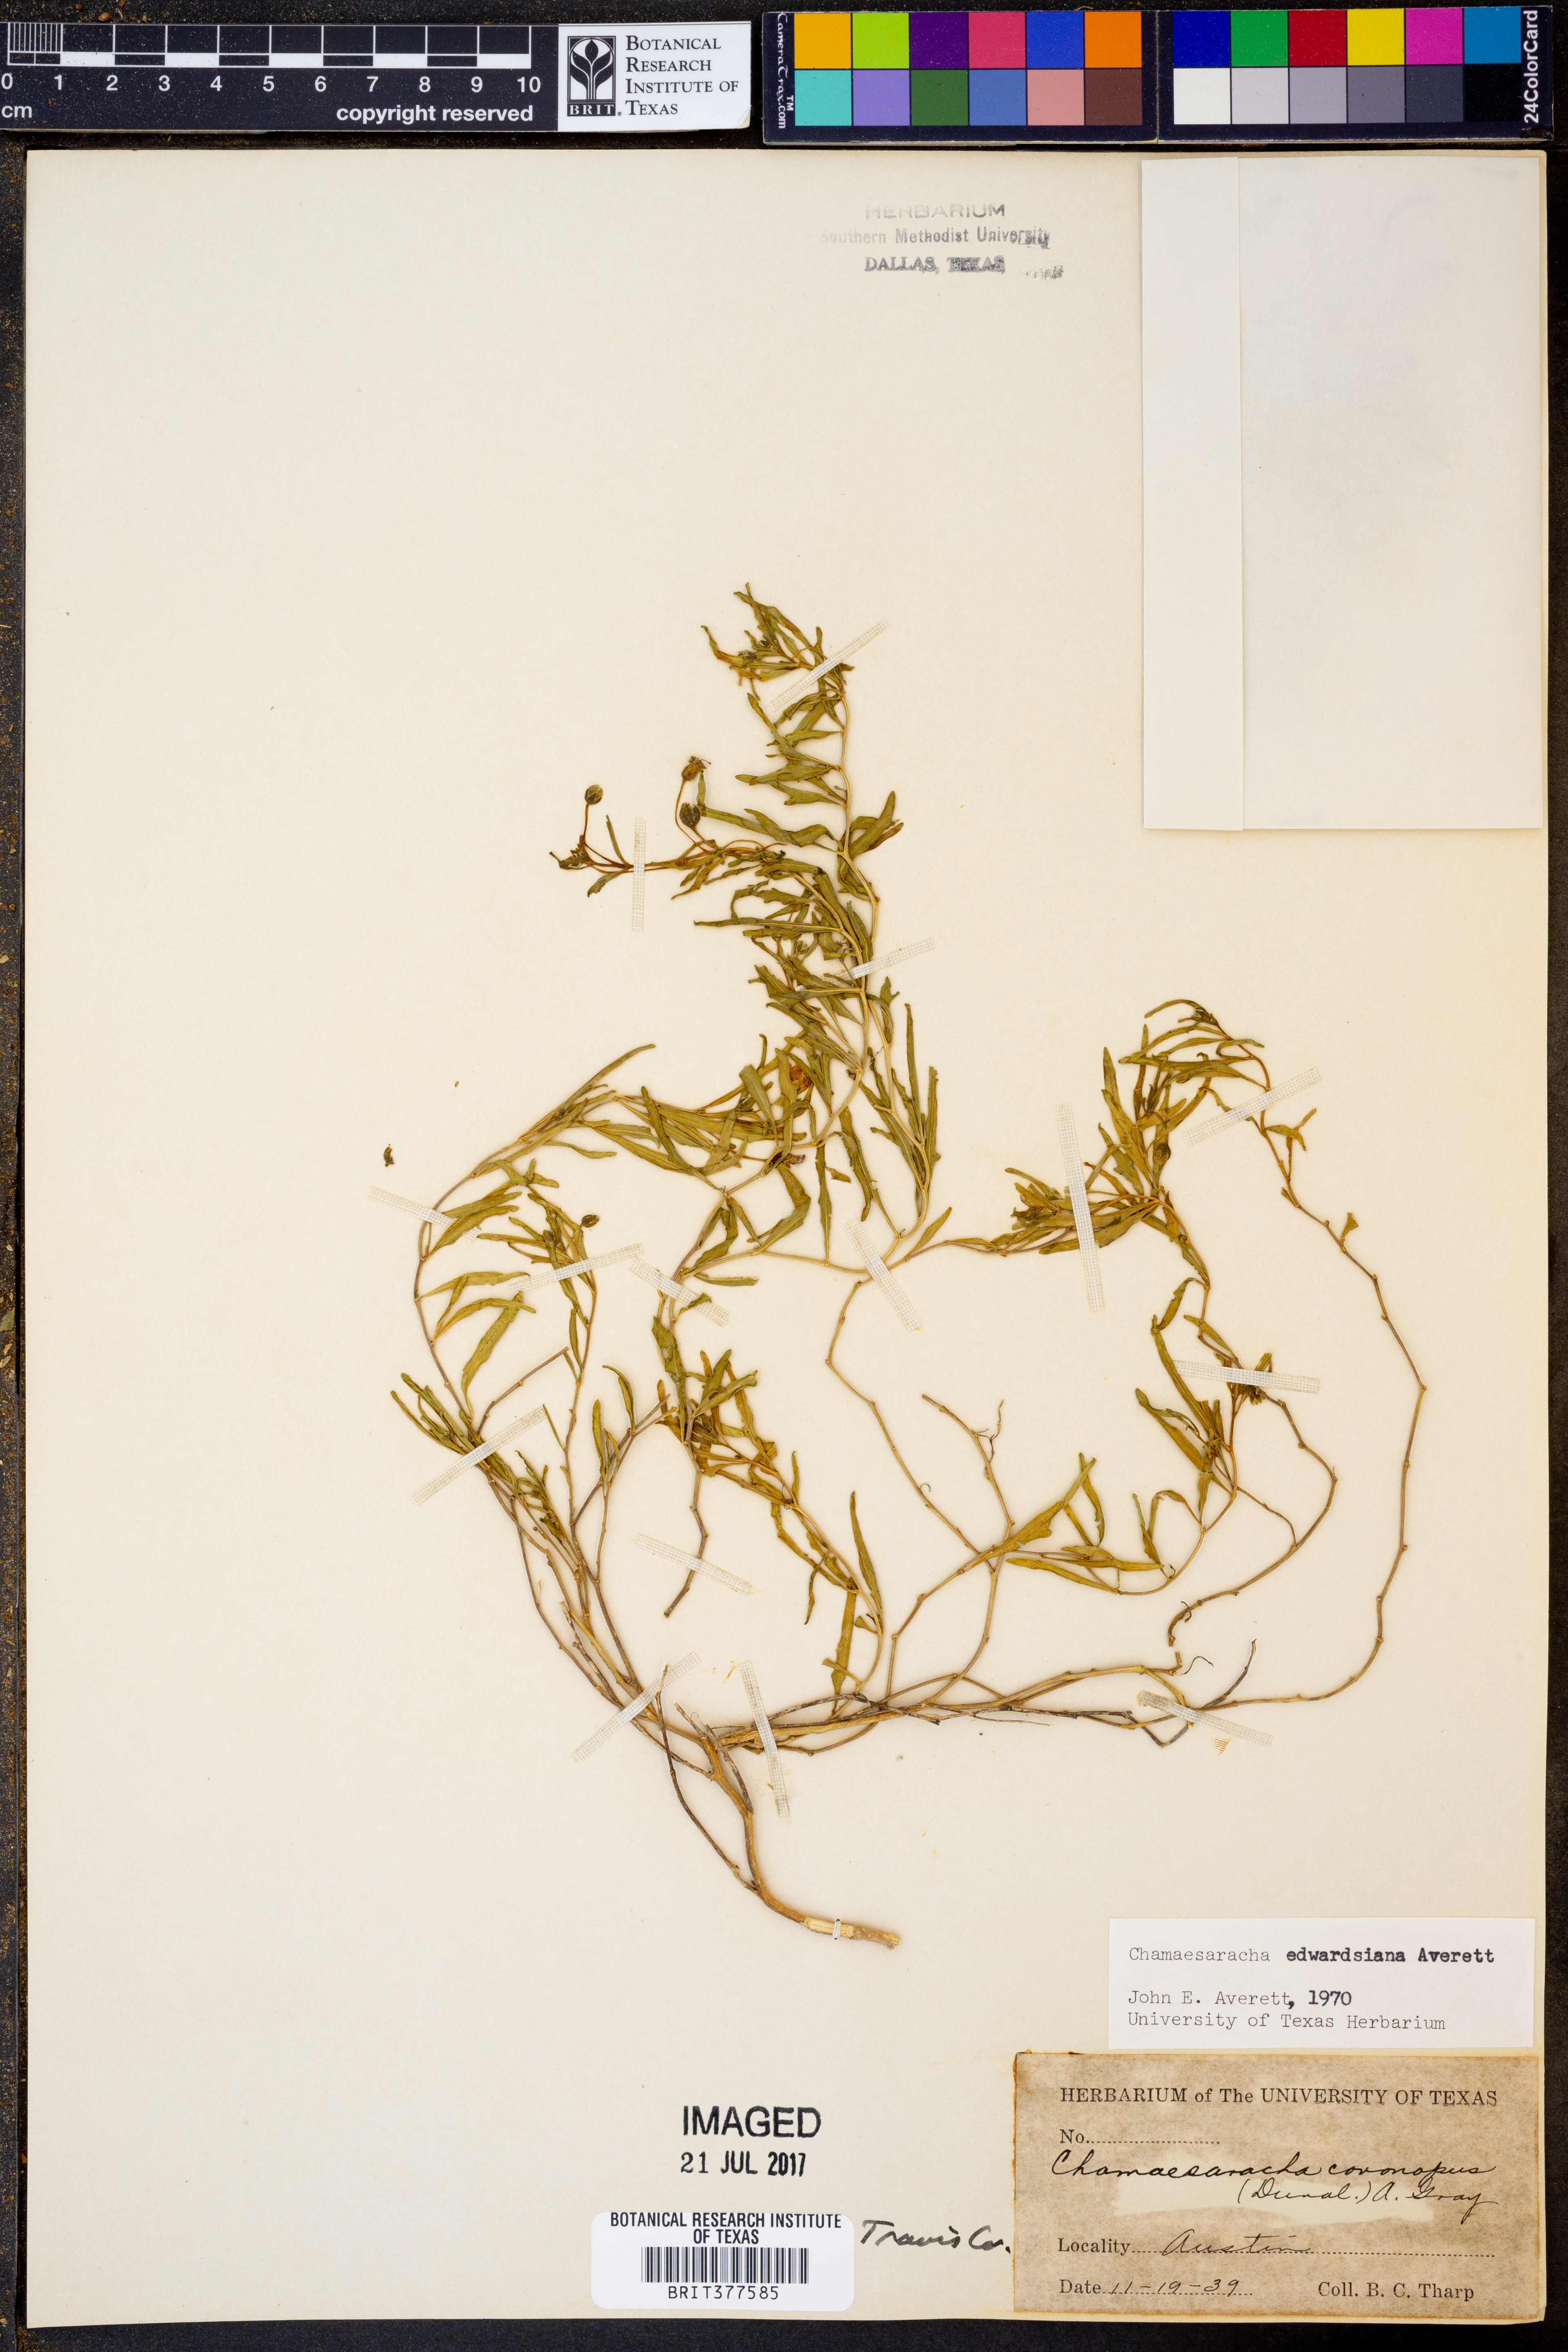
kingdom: Plantae
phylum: Tracheophyta
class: Magnoliopsida
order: Solanales
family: Solanaceae
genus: Chamaesaracha
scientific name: Chamaesaracha edwardsiana
